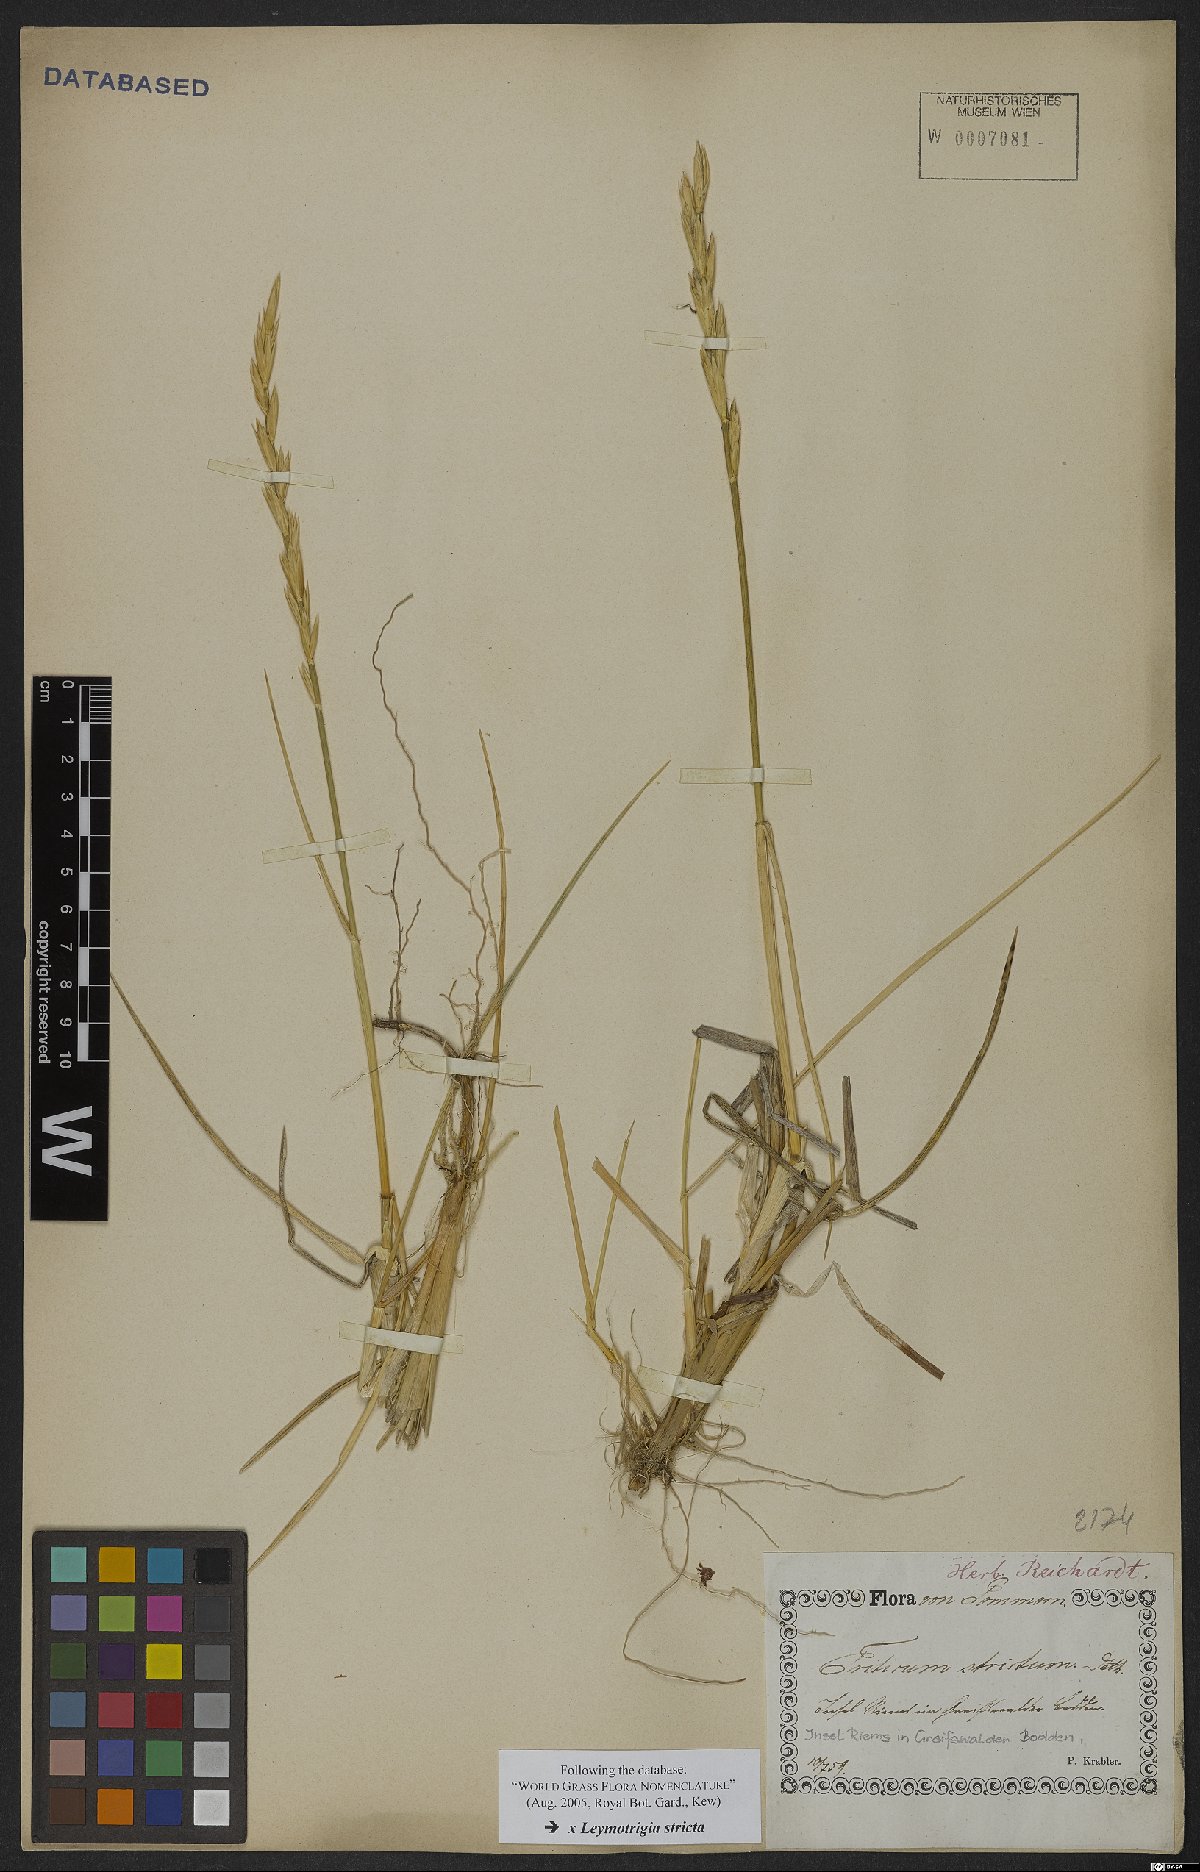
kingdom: Plantae
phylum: Tracheophyta
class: Liliopsida
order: Poales
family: Poaceae
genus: Elyleymus
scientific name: Elyleymus strictus
